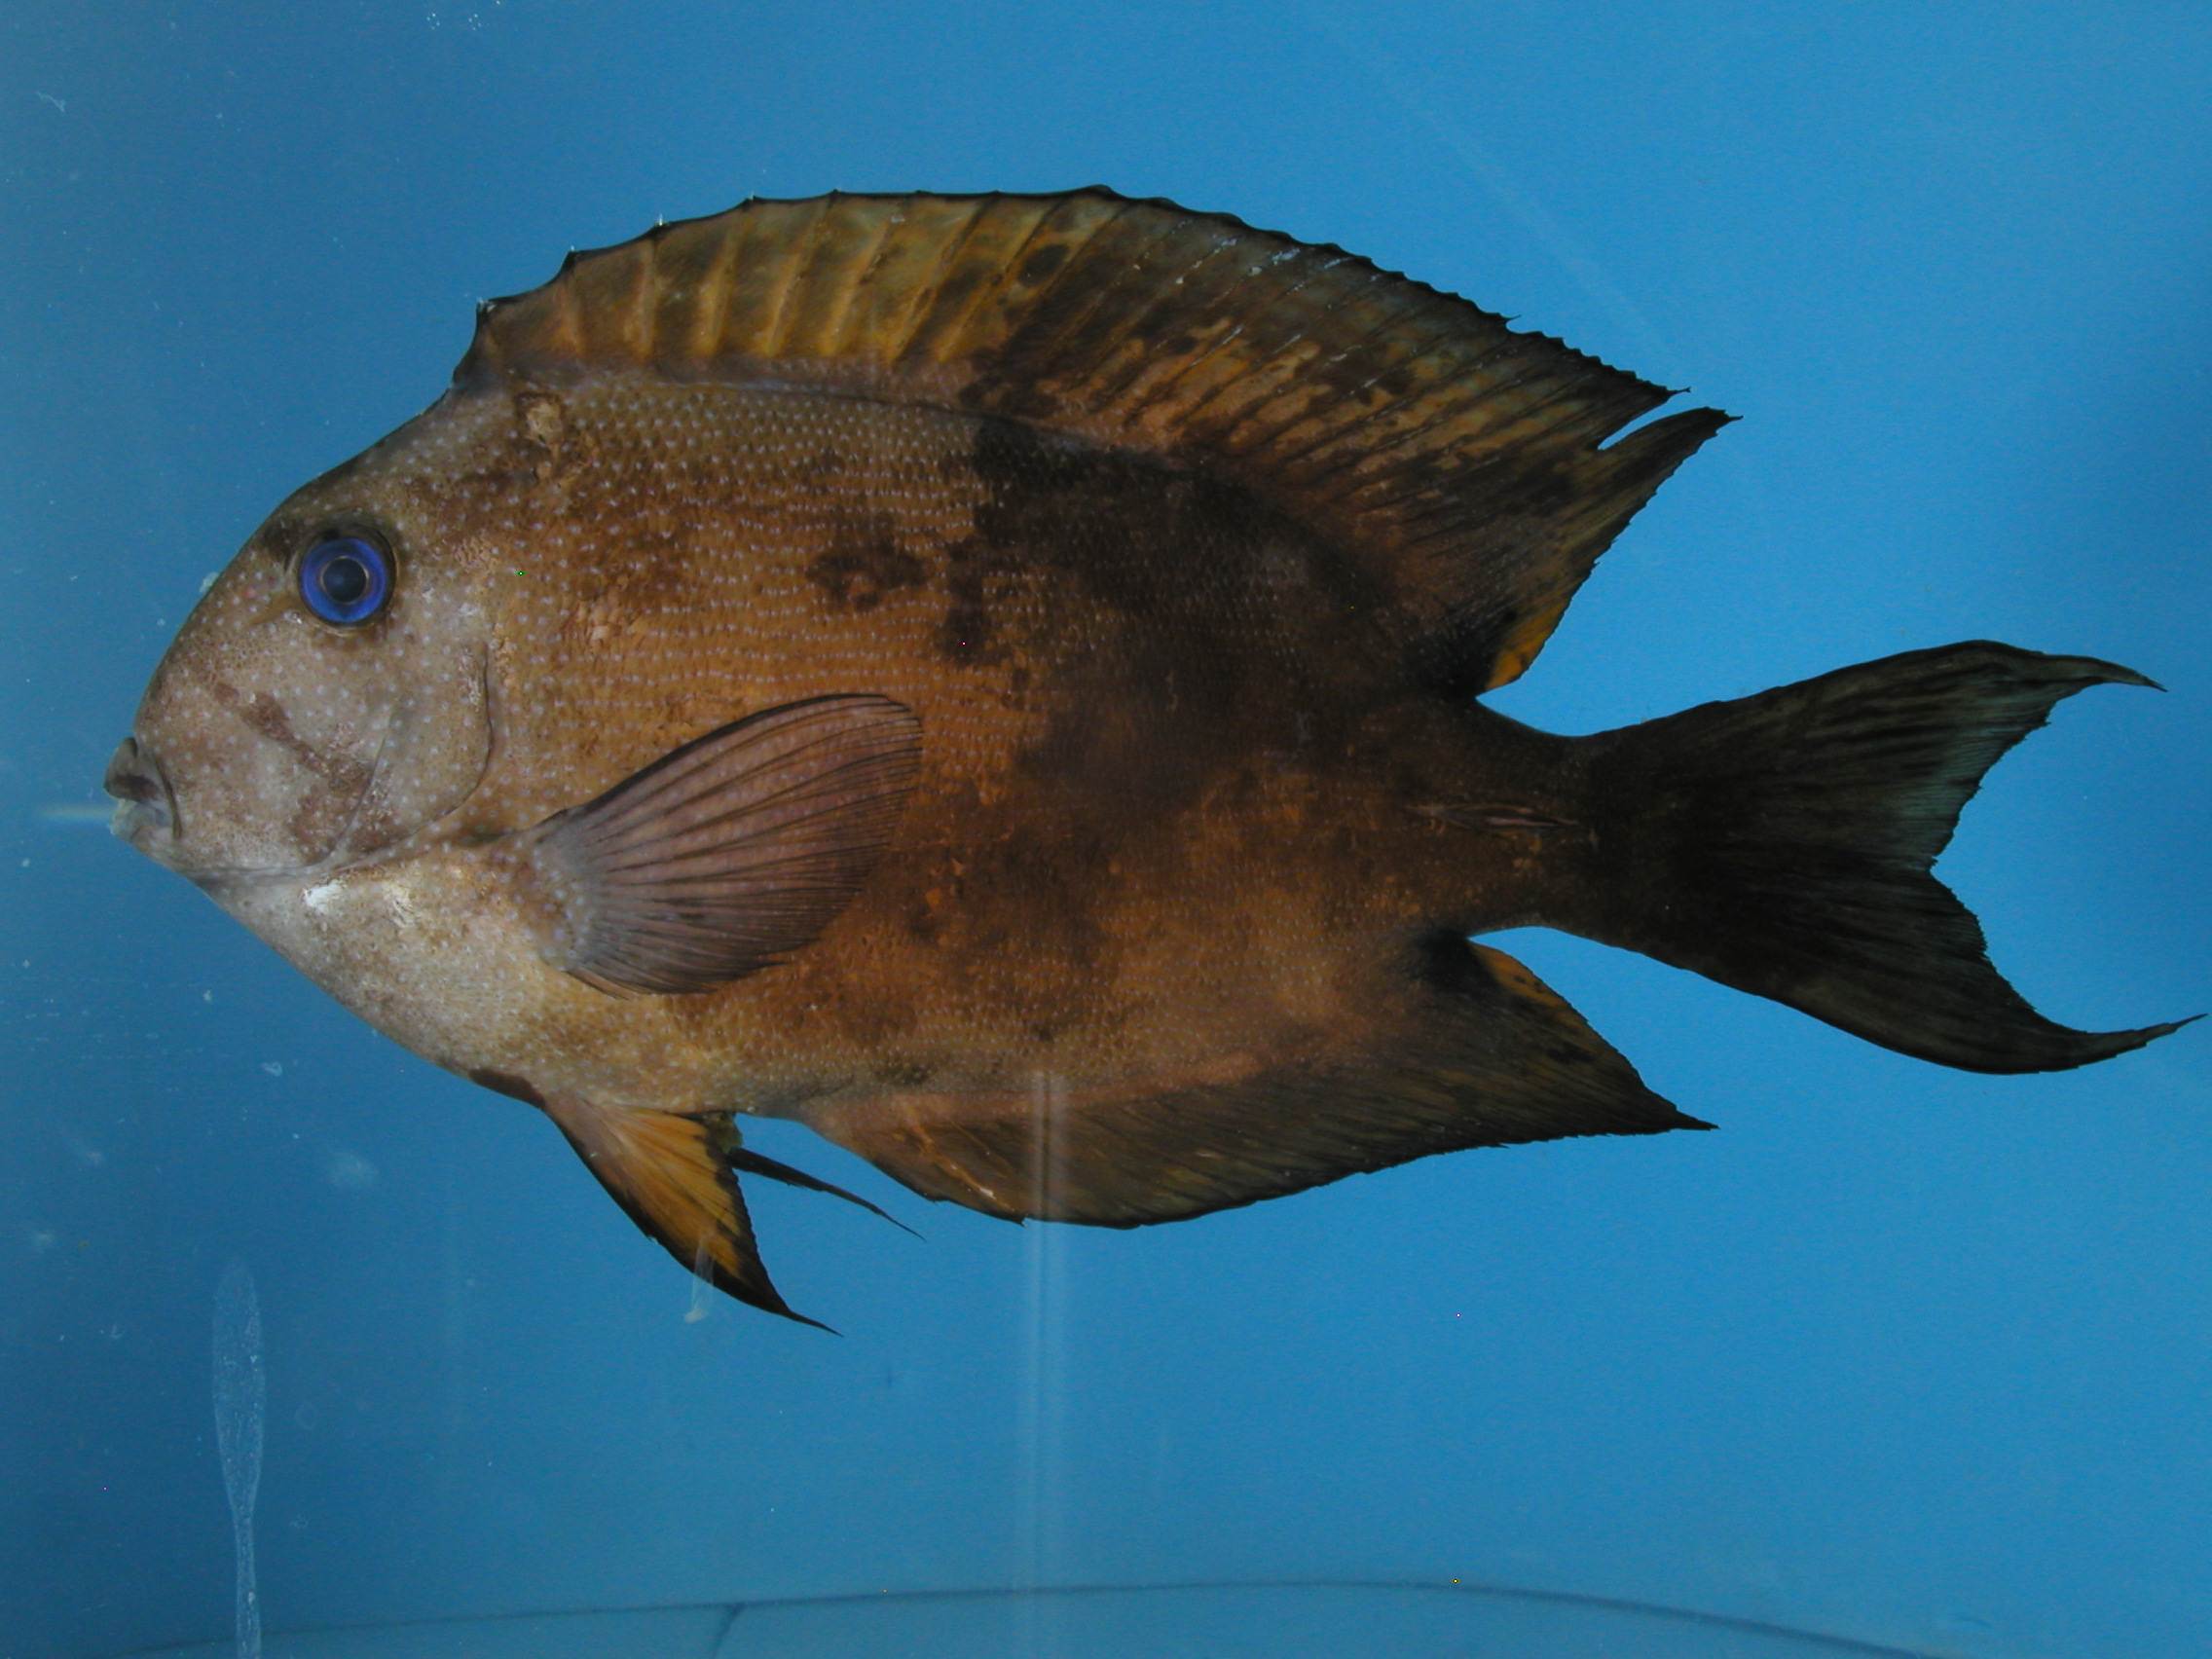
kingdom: Animalia
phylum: Chordata
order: Perciformes
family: Acanthuridae
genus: Ctenochaetus
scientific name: Ctenochaetus binotatus
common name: Two-spot bristletooth
